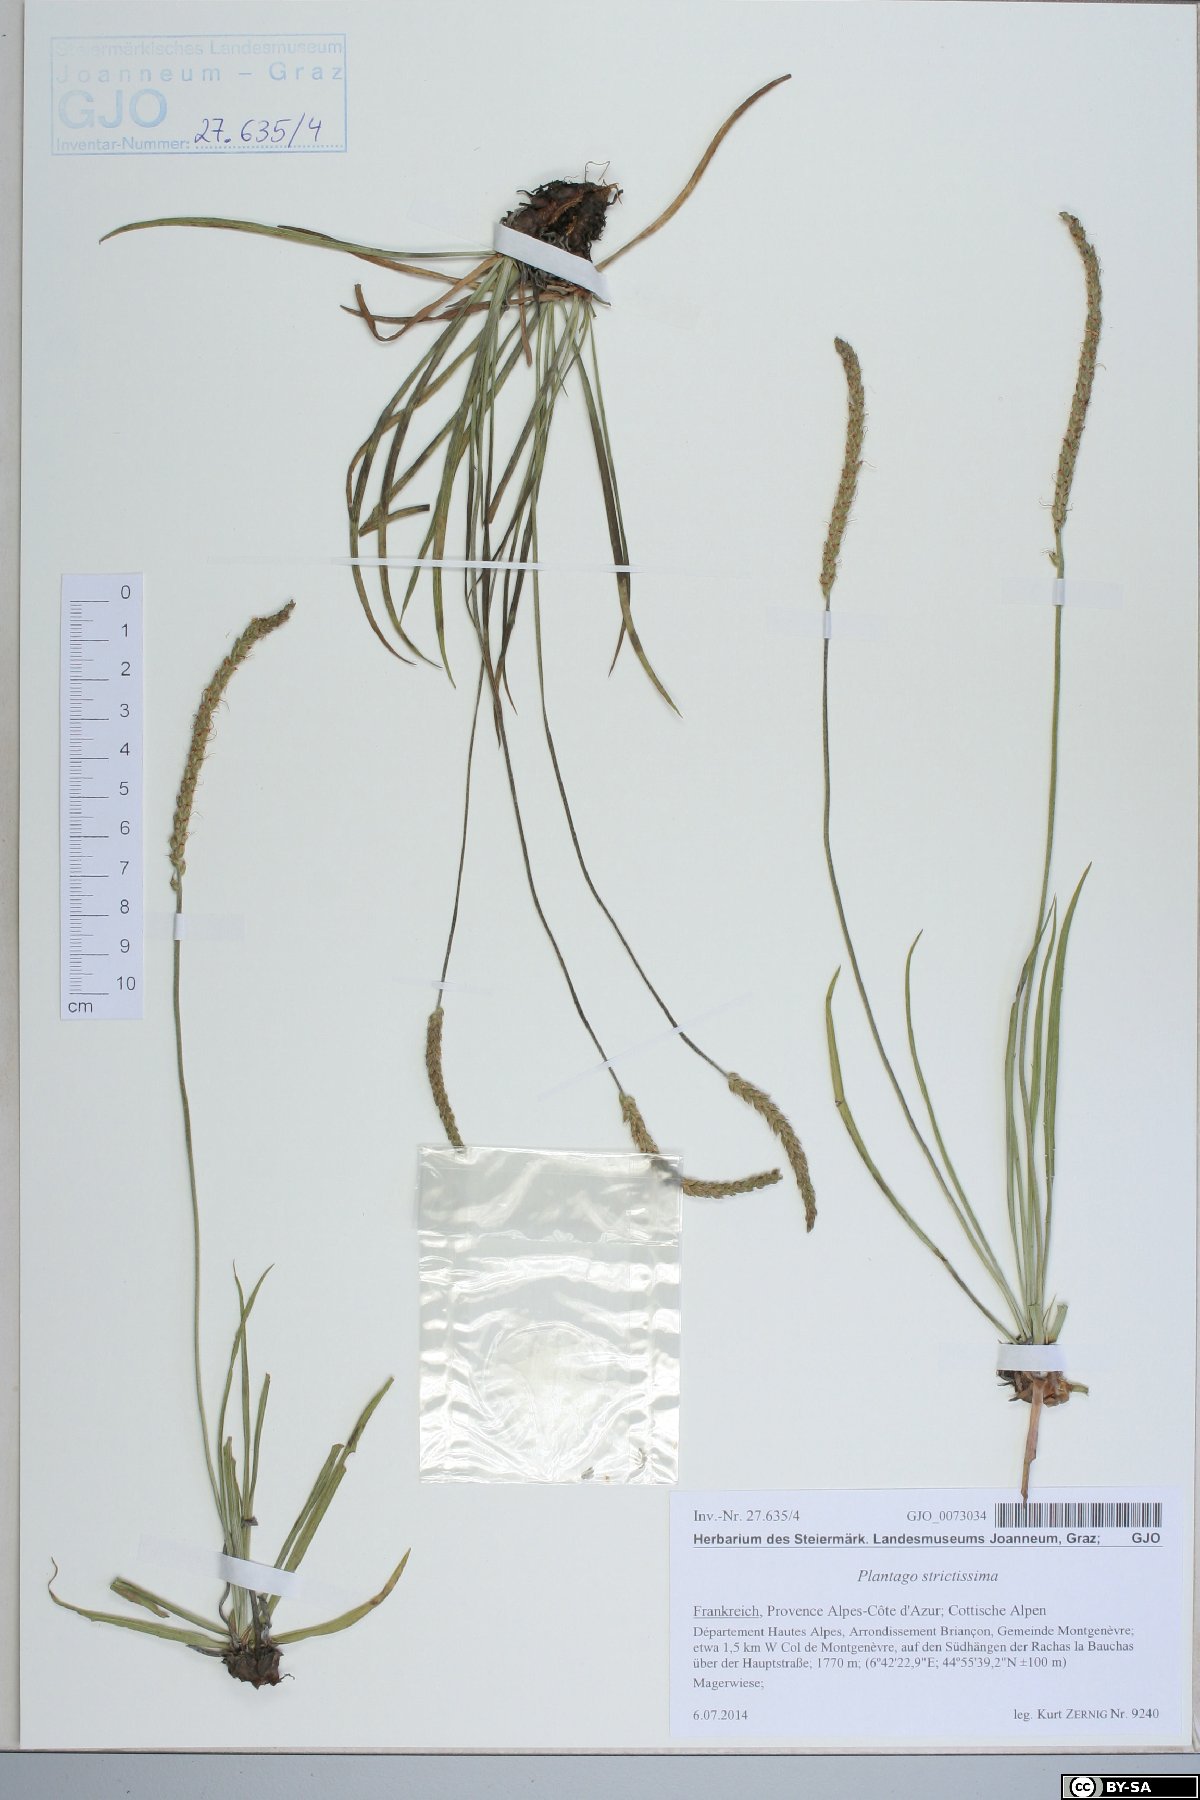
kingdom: Plantae
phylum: Tracheophyta
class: Magnoliopsida
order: Lamiales
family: Plantaginaceae
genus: Plantago
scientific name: Plantago strictissima
